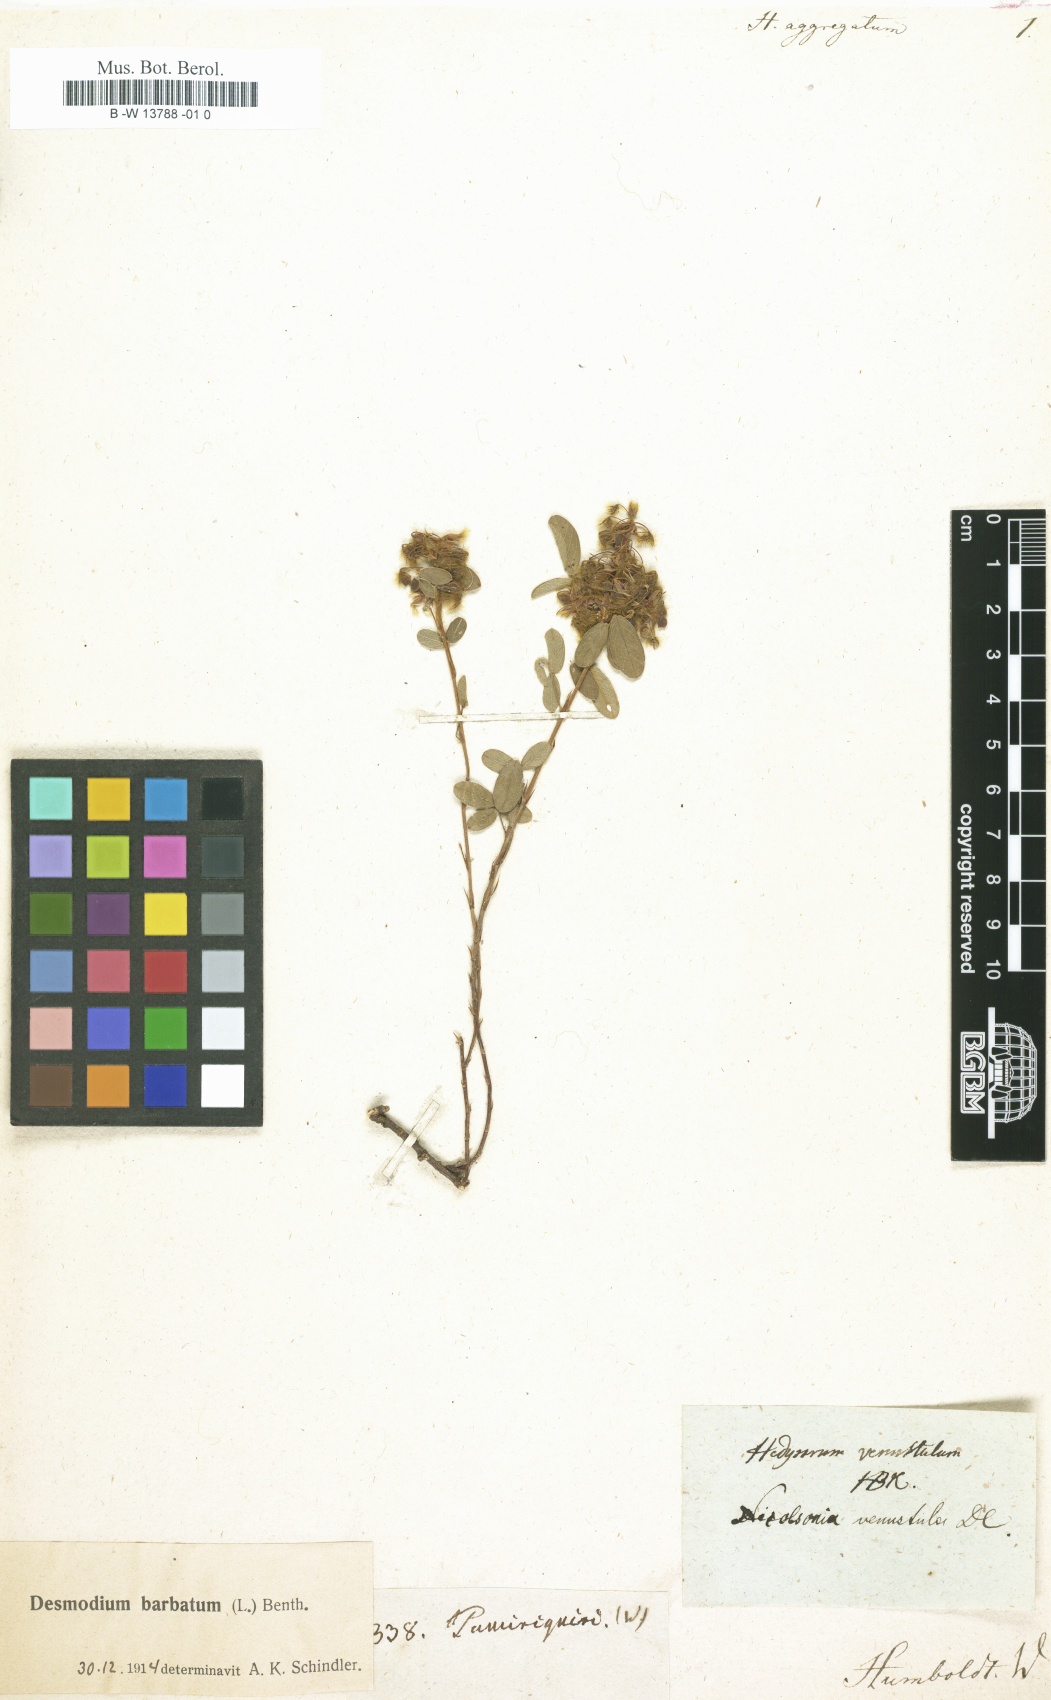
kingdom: Plantae
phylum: Tracheophyta
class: Magnoliopsida
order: Fabales
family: Fabaceae
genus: Hedysarum
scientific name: Hedysarum
